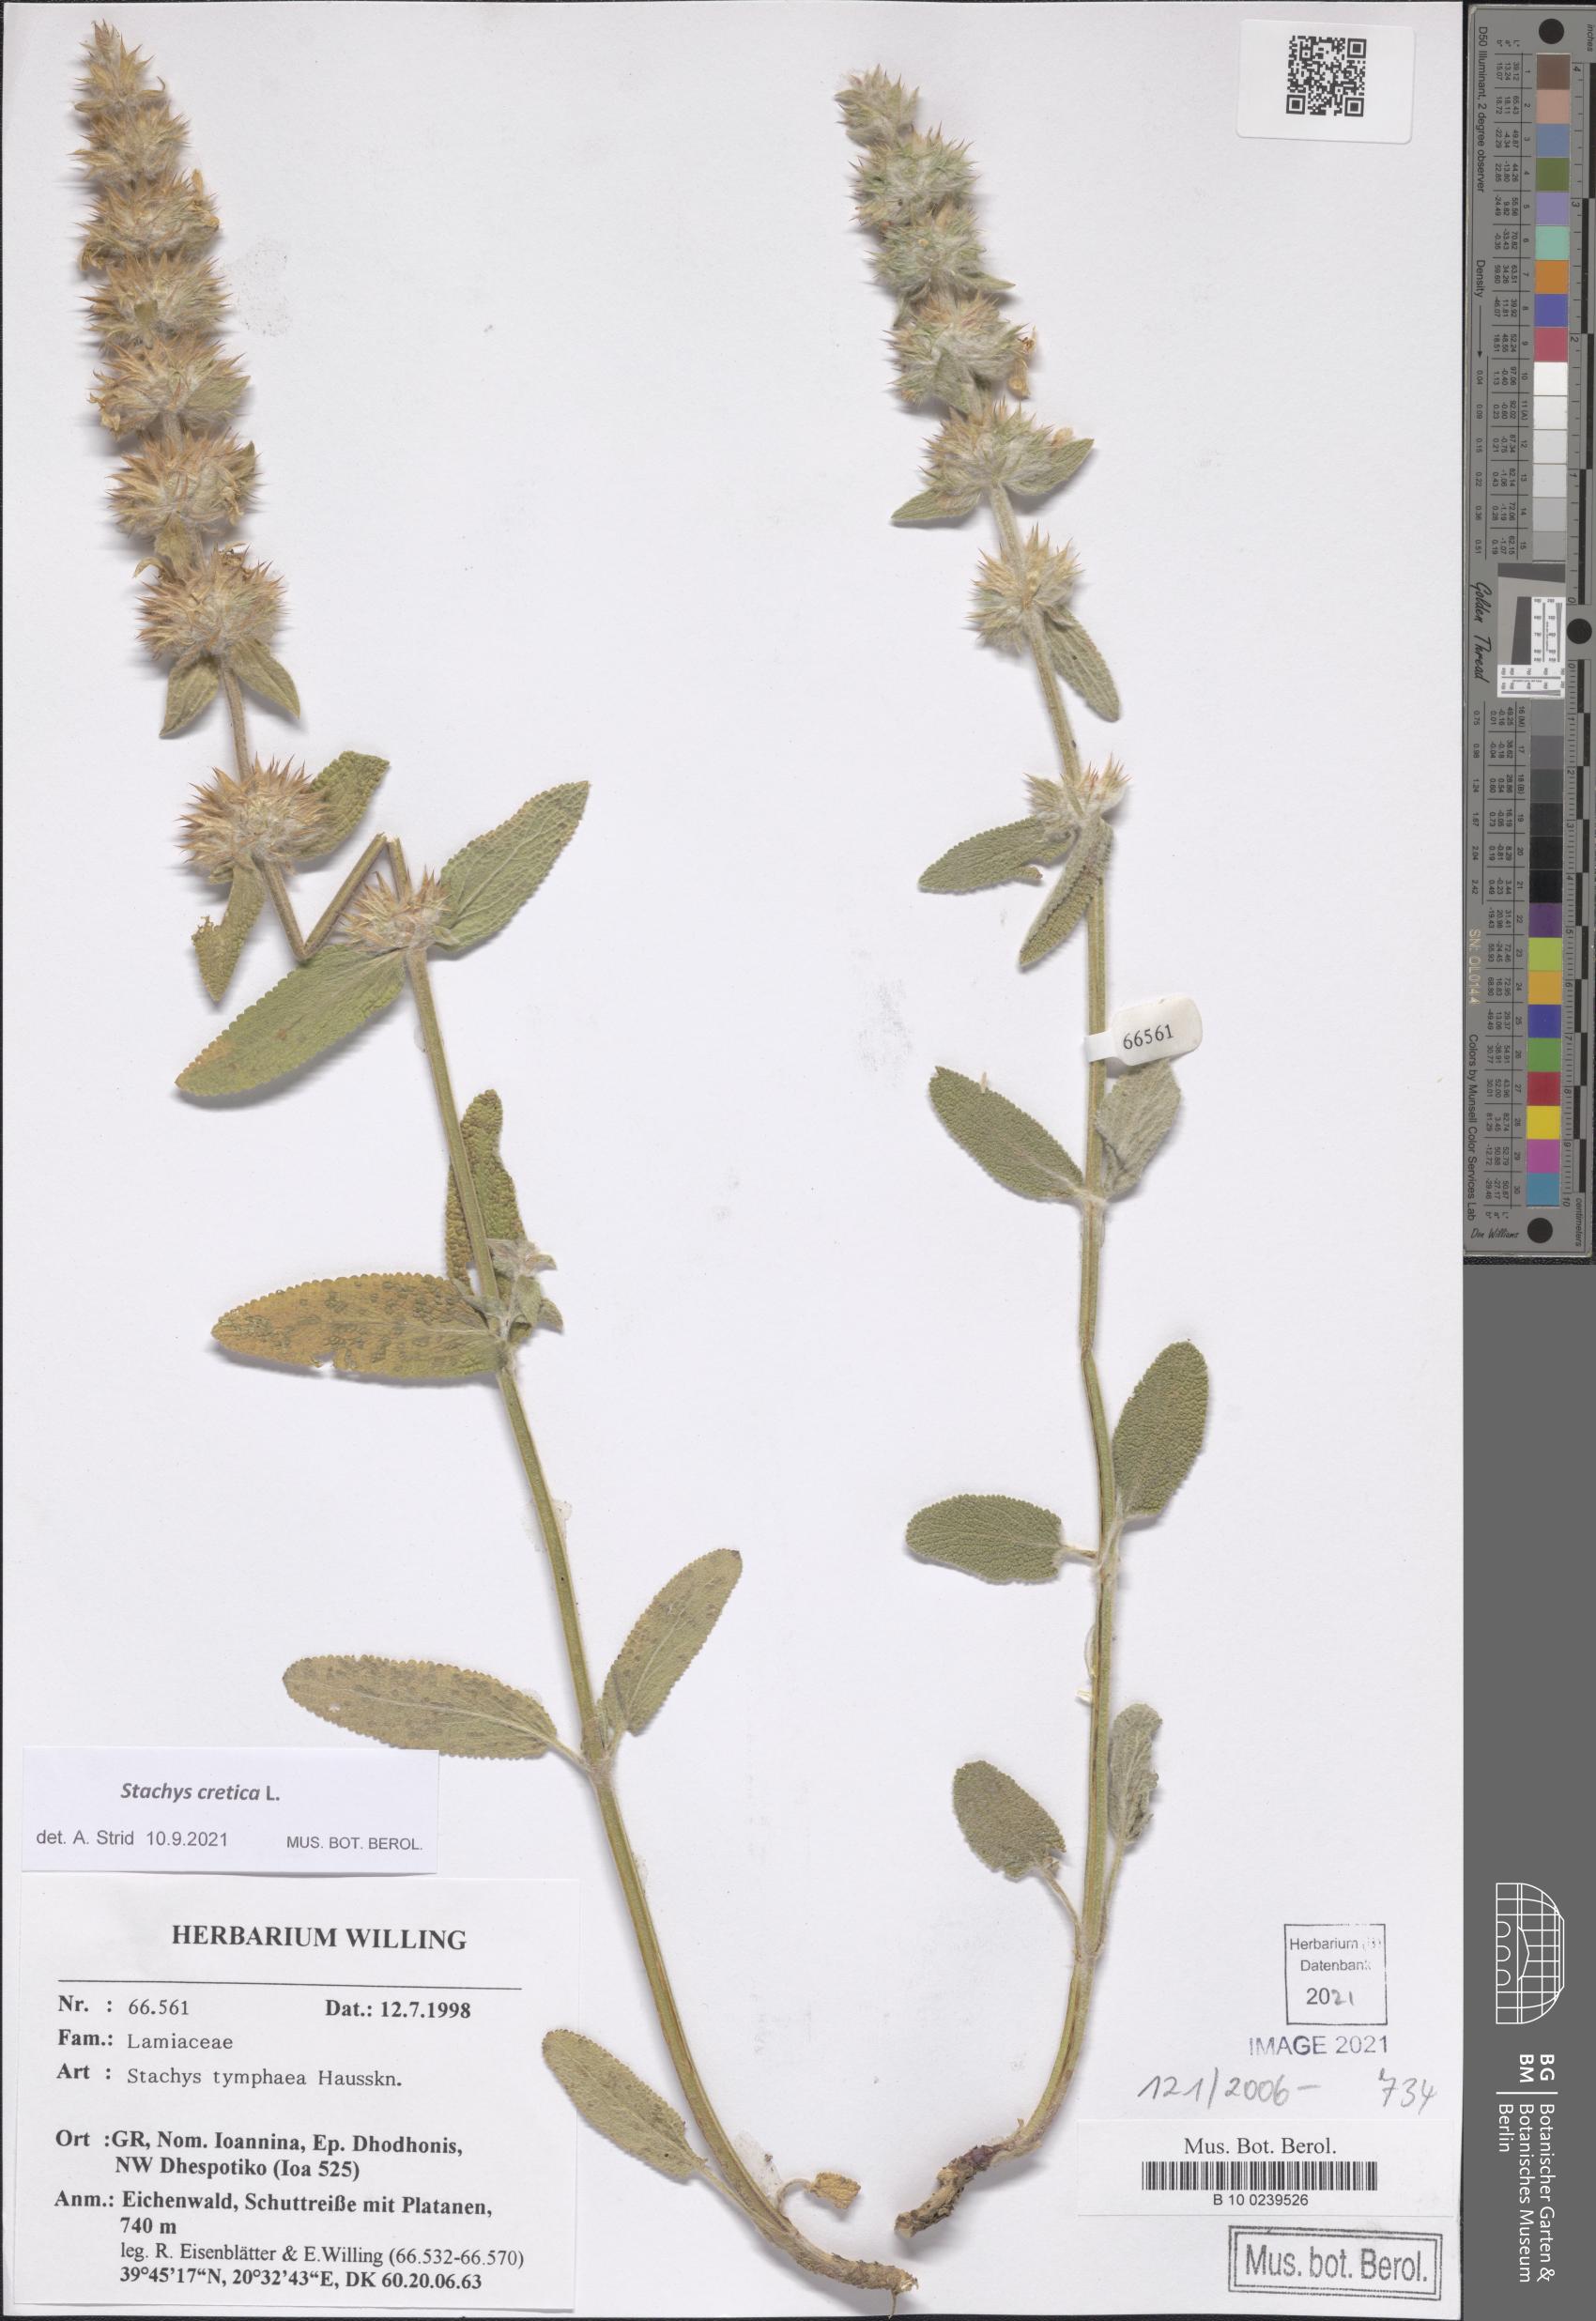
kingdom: Plantae
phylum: Tracheophyta
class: Magnoliopsida
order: Lamiales
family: Lamiaceae
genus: Stachys
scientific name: Stachys cretica
